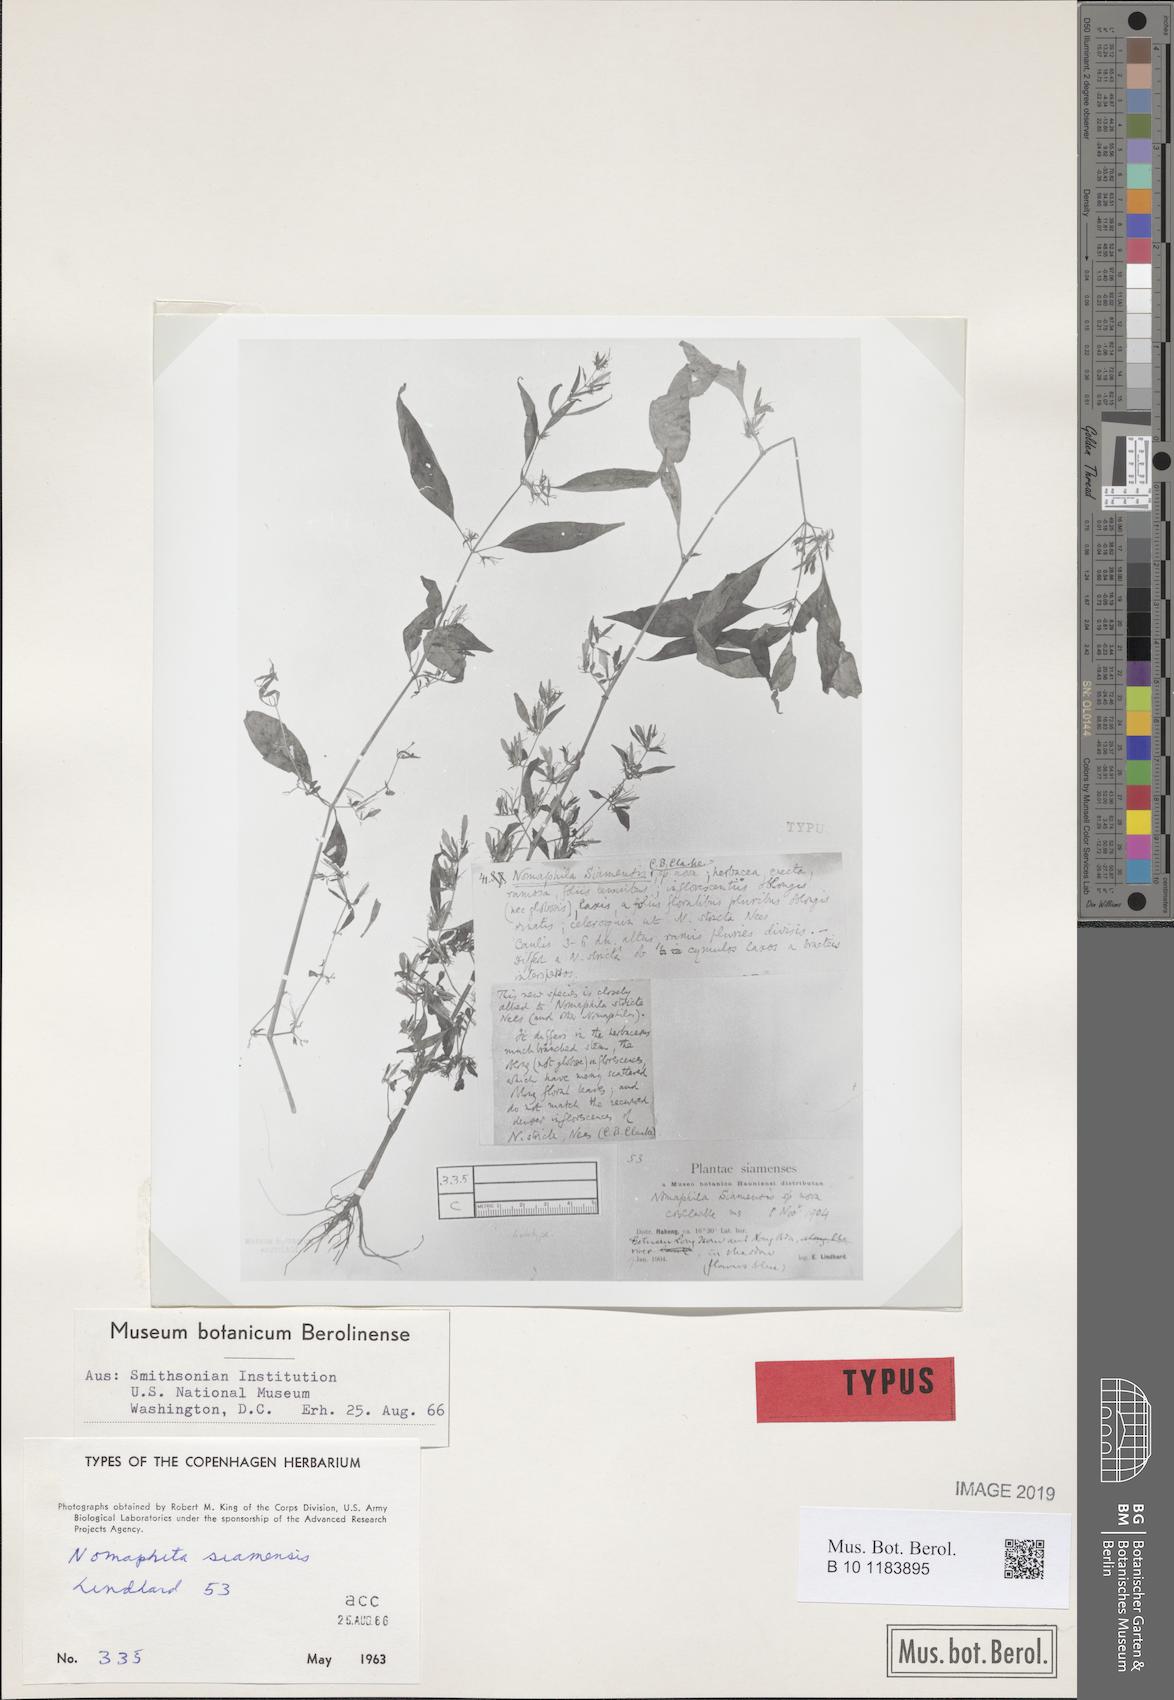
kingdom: Plantae
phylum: Tracheophyta
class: Magnoliopsida
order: Lamiales
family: Acanthaceae
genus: Hygrophila
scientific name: Hygrophila corymbosa
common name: Starhorn
